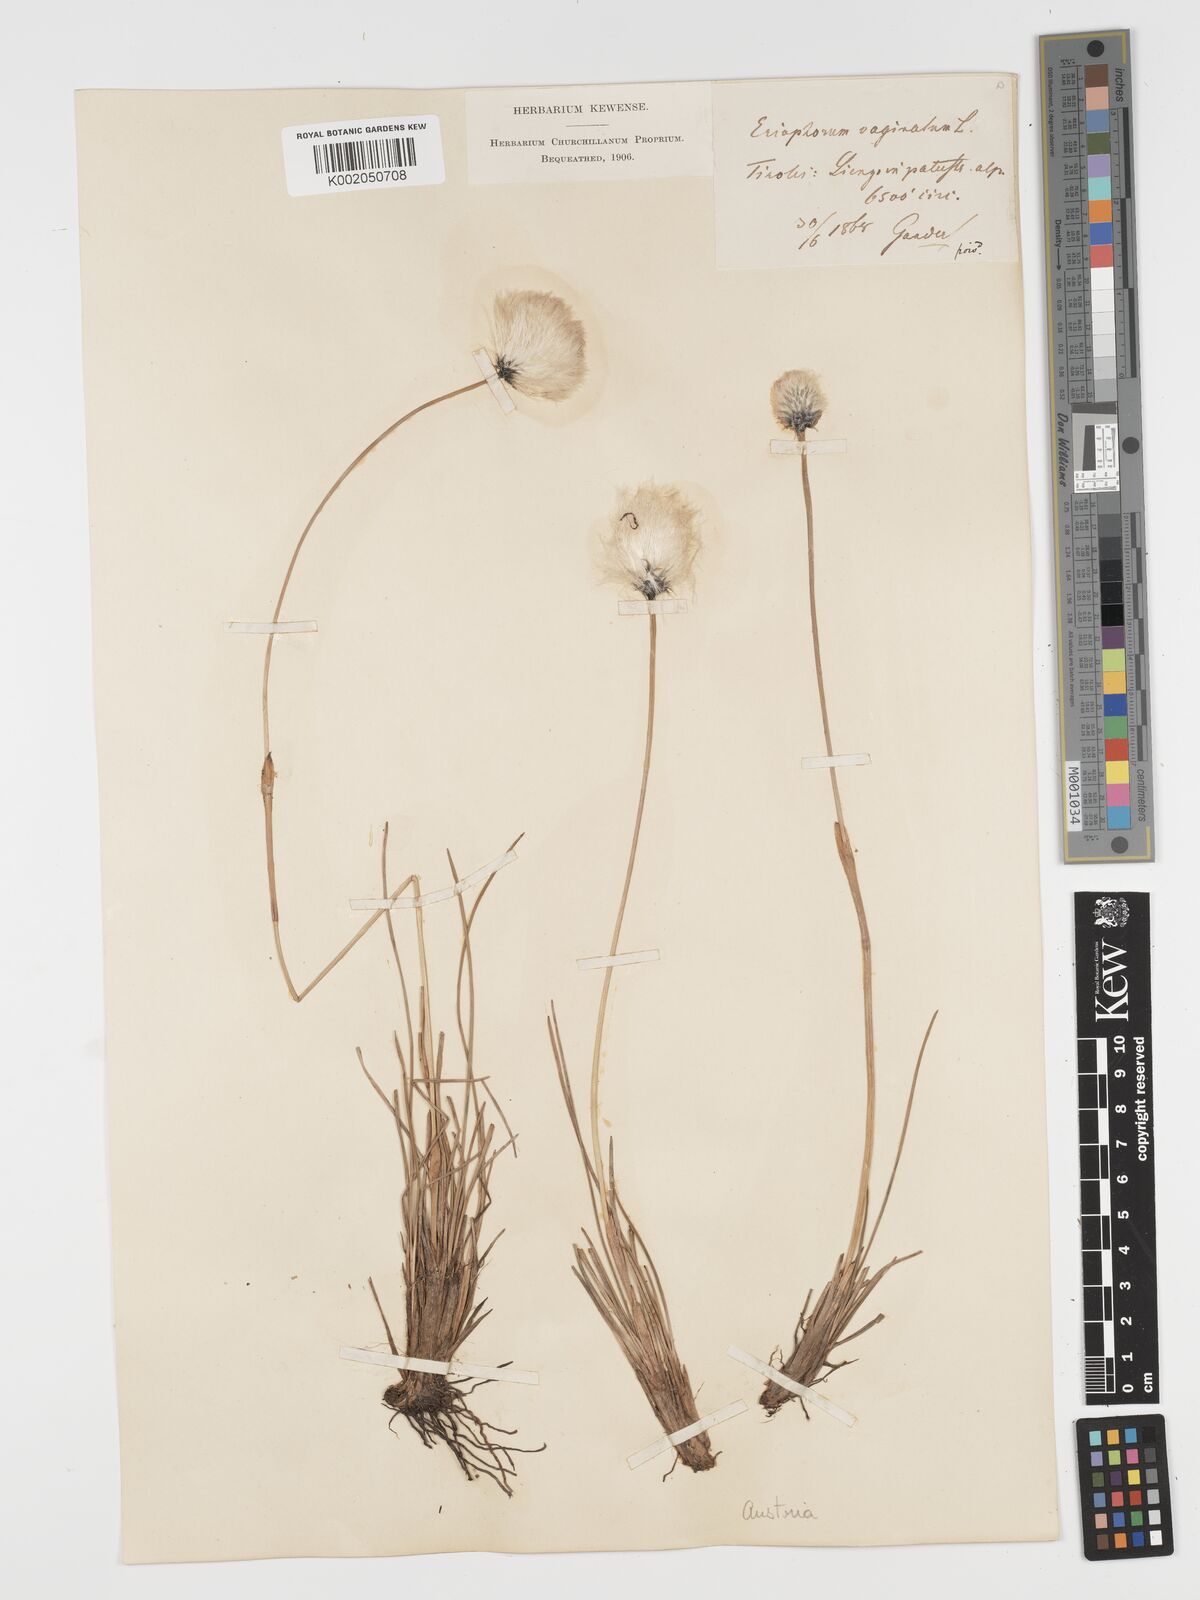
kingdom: Plantae
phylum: Tracheophyta
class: Liliopsida
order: Poales
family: Cyperaceae
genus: Eriophorum
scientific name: Eriophorum vaginatum
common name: Hare's-tail cottongrass
